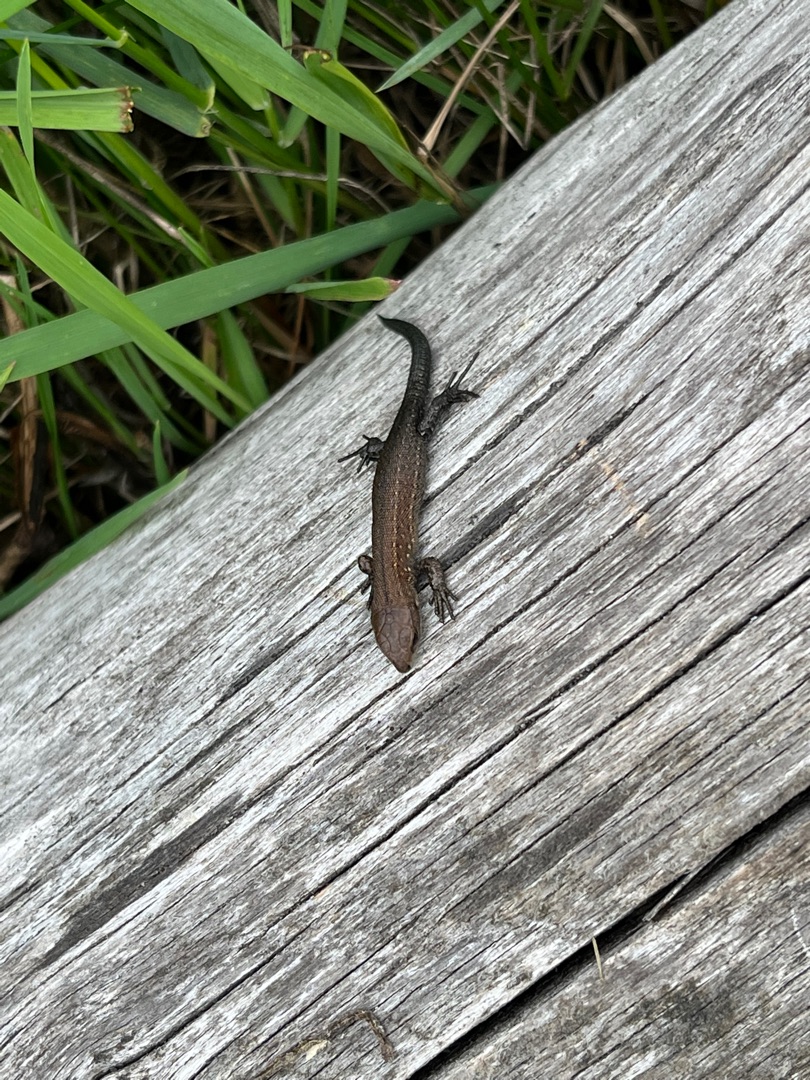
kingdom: Animalia
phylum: Chordata
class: Squamata
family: Lacertidae
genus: Zootoca
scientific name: Zootoca vivipara
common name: Skovfirben
